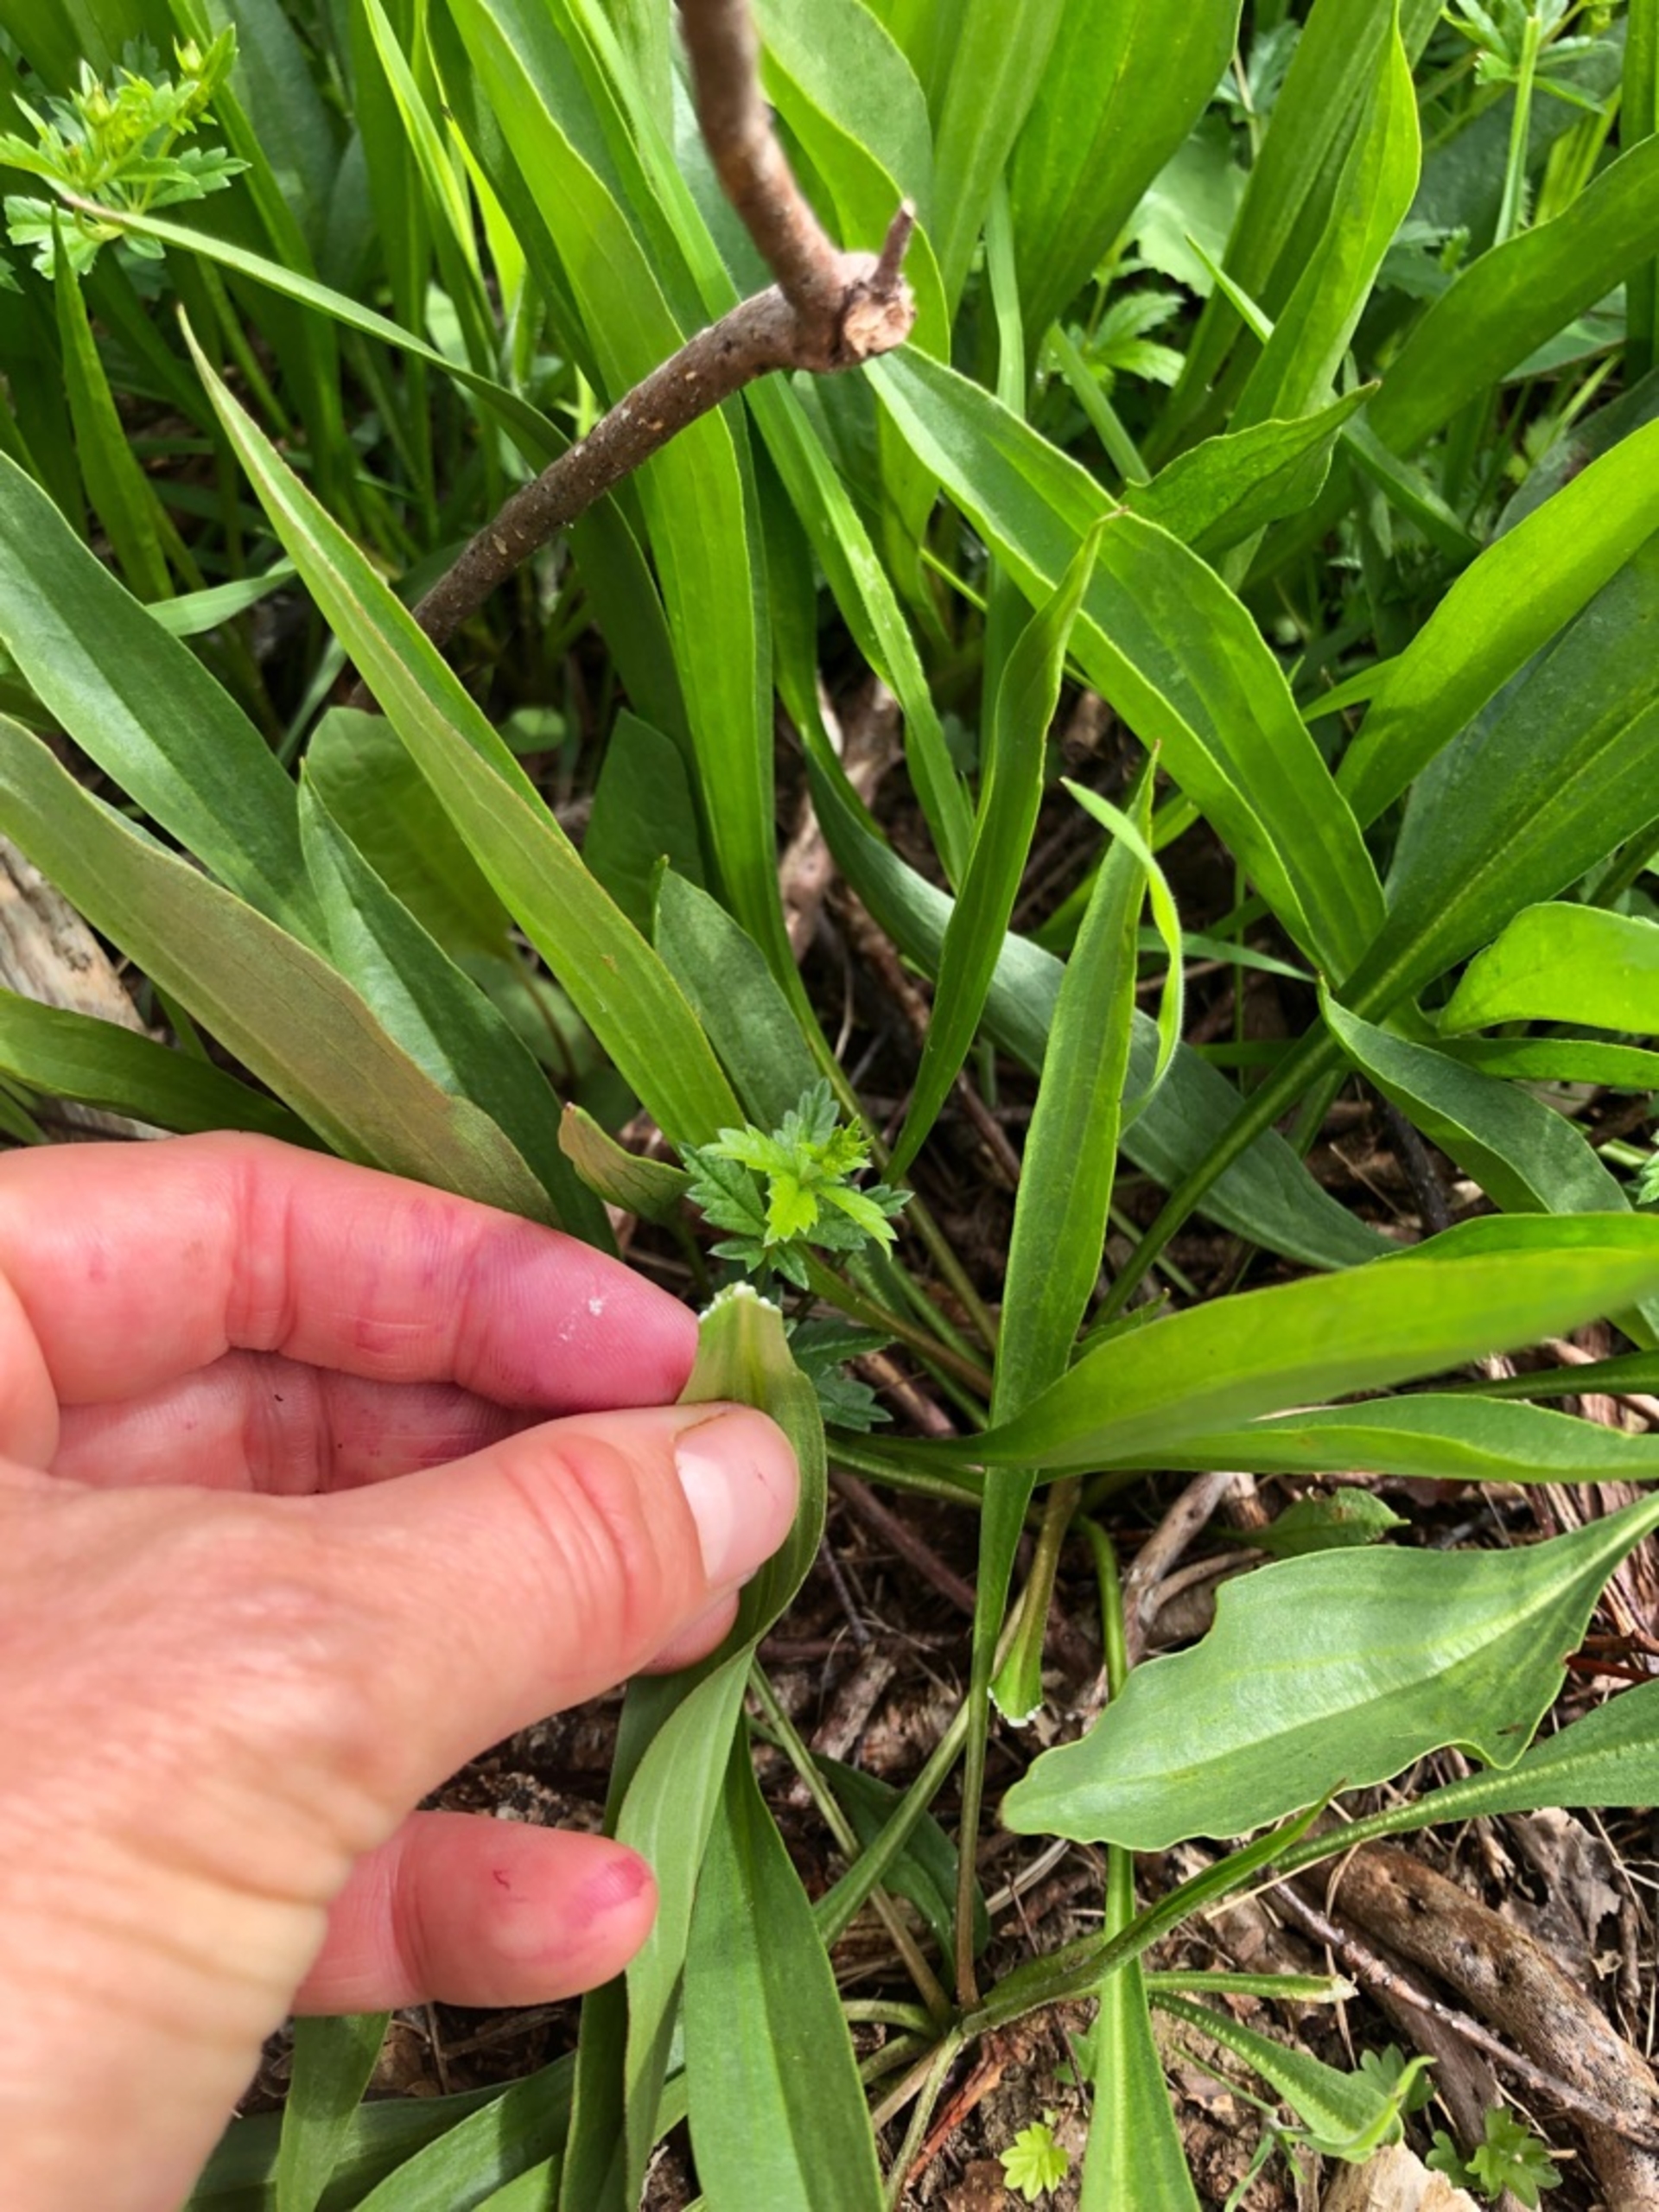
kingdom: Plantae
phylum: Tracheophyta
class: Magnoliopsida
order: Asterales
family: Asteraceae
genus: Scorzonera
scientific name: Scorzonera humilis
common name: Lav skorsoner
